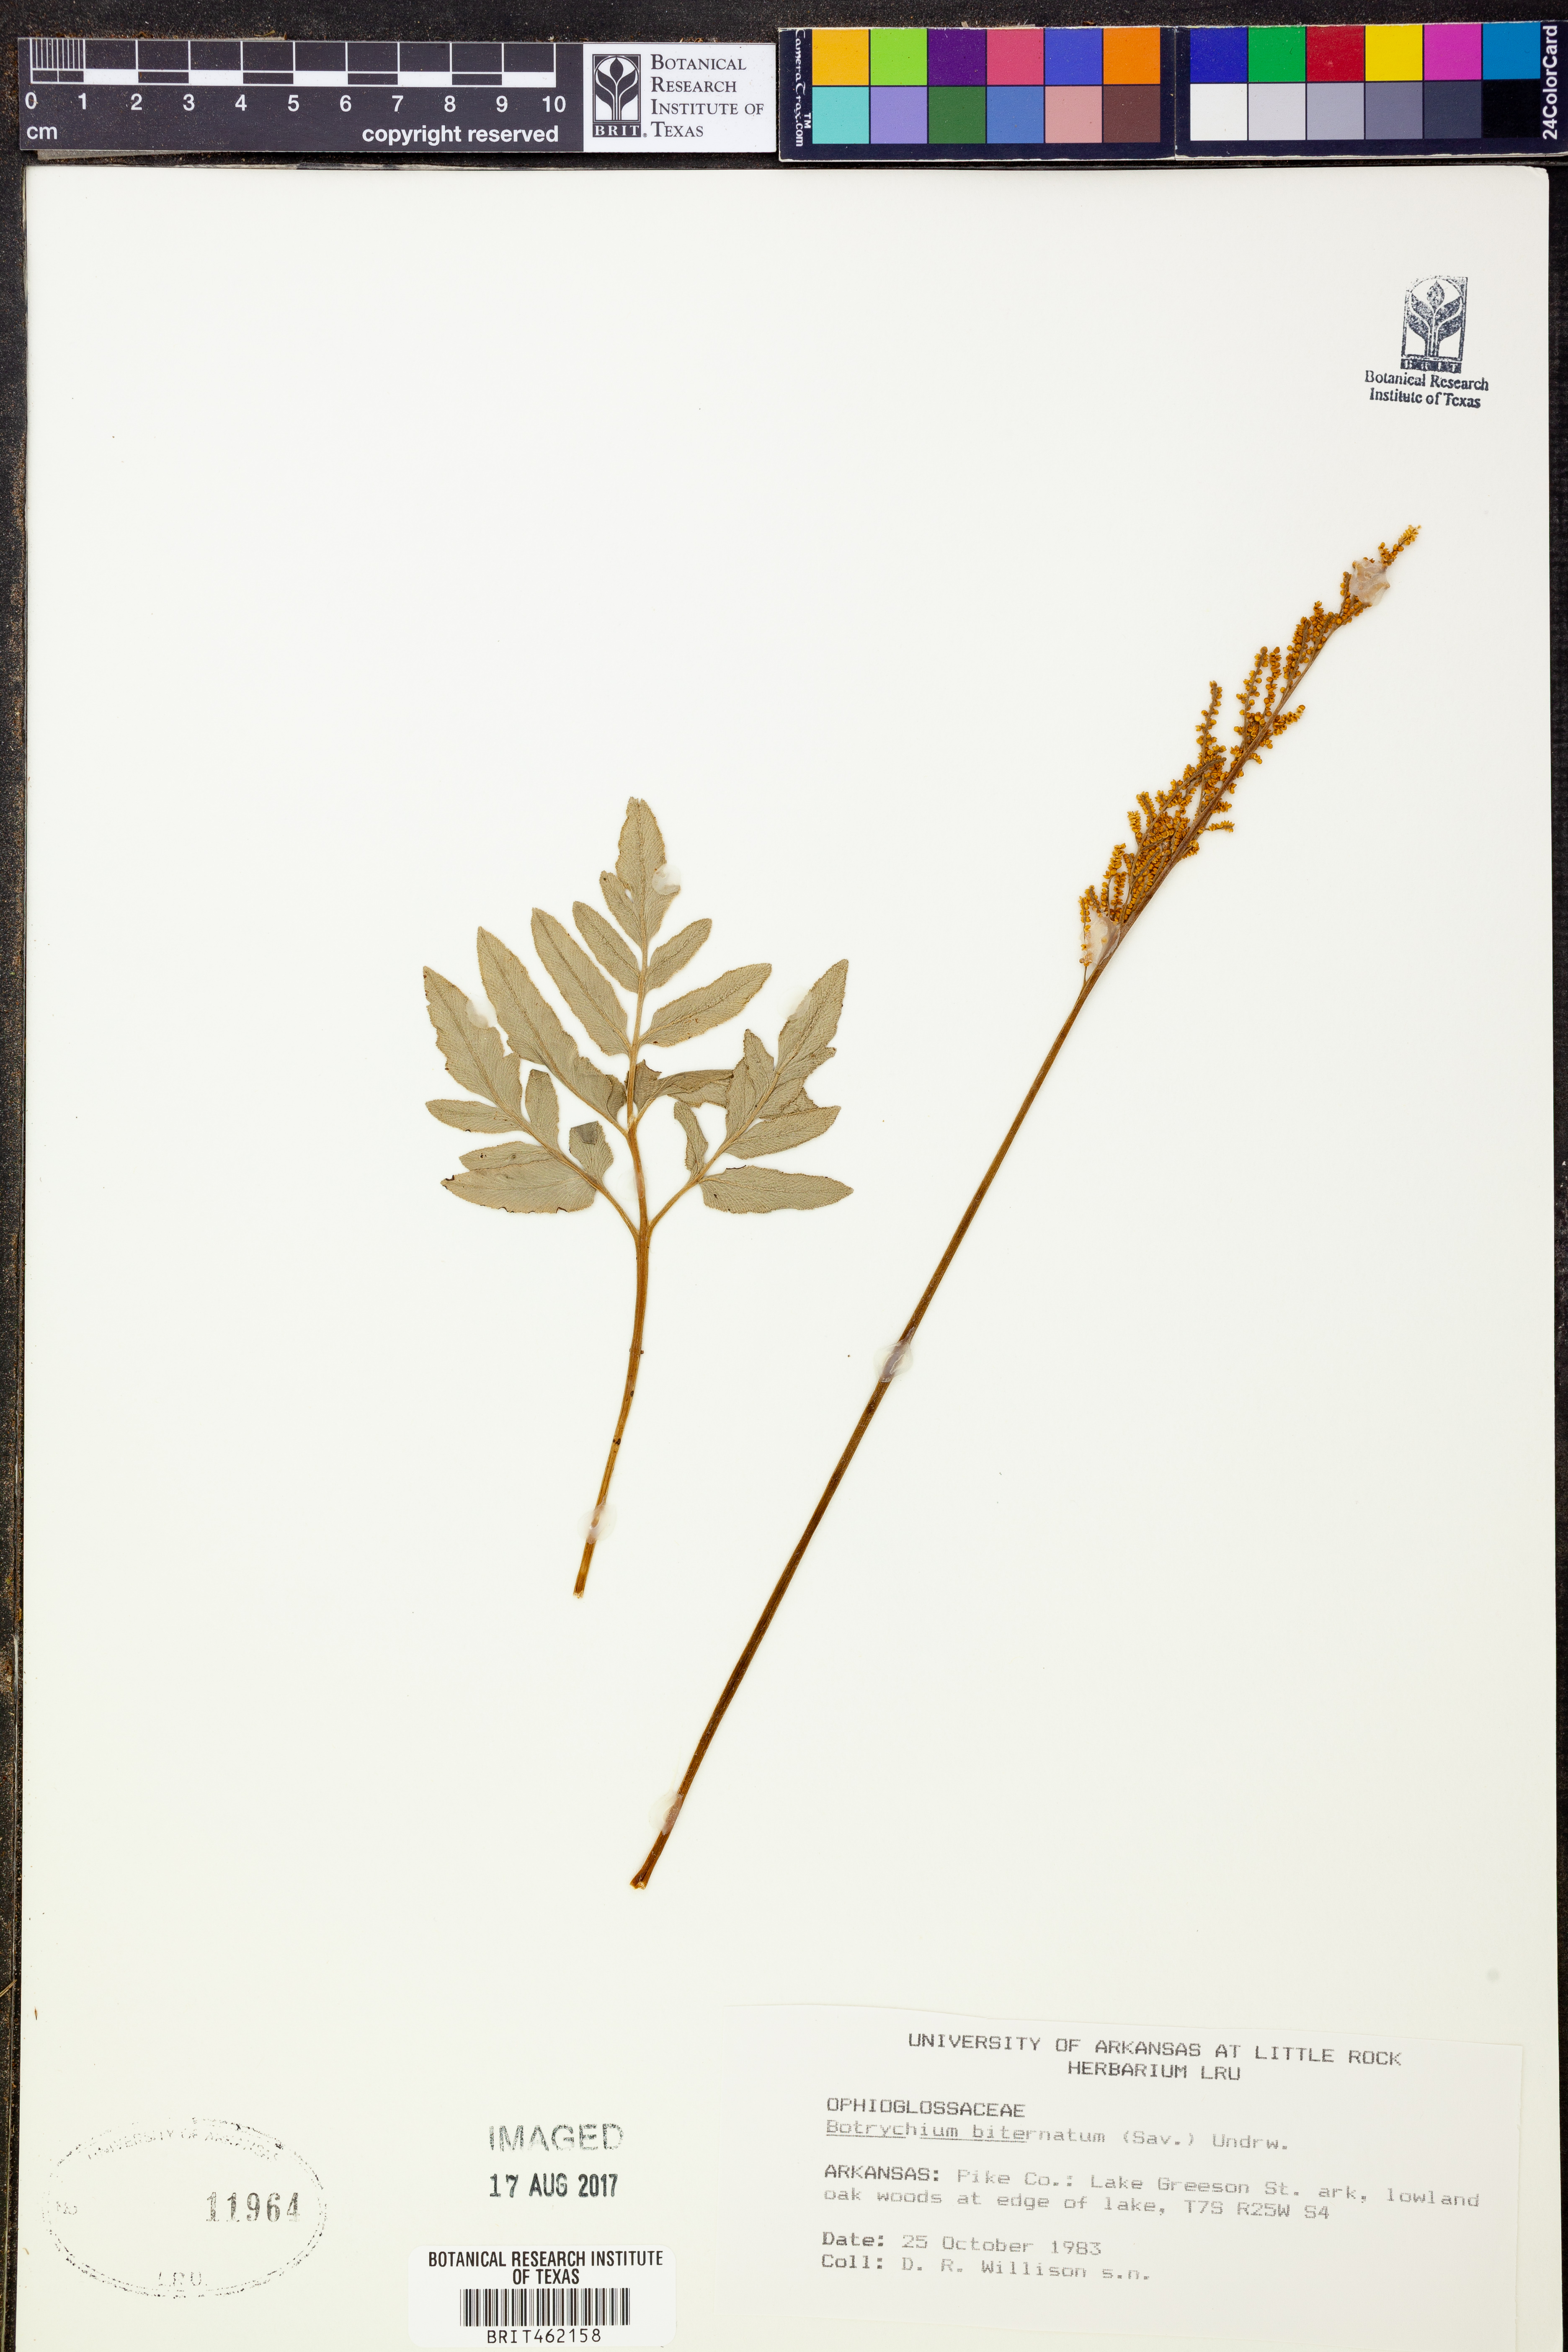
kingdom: Plantae
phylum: Tracheophyta
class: Polypodiopsida
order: Ophioglossales
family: Ophioglossaceae
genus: Sceptridium
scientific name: Sceptridium biternatum
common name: Sparse-lobed grapefern
